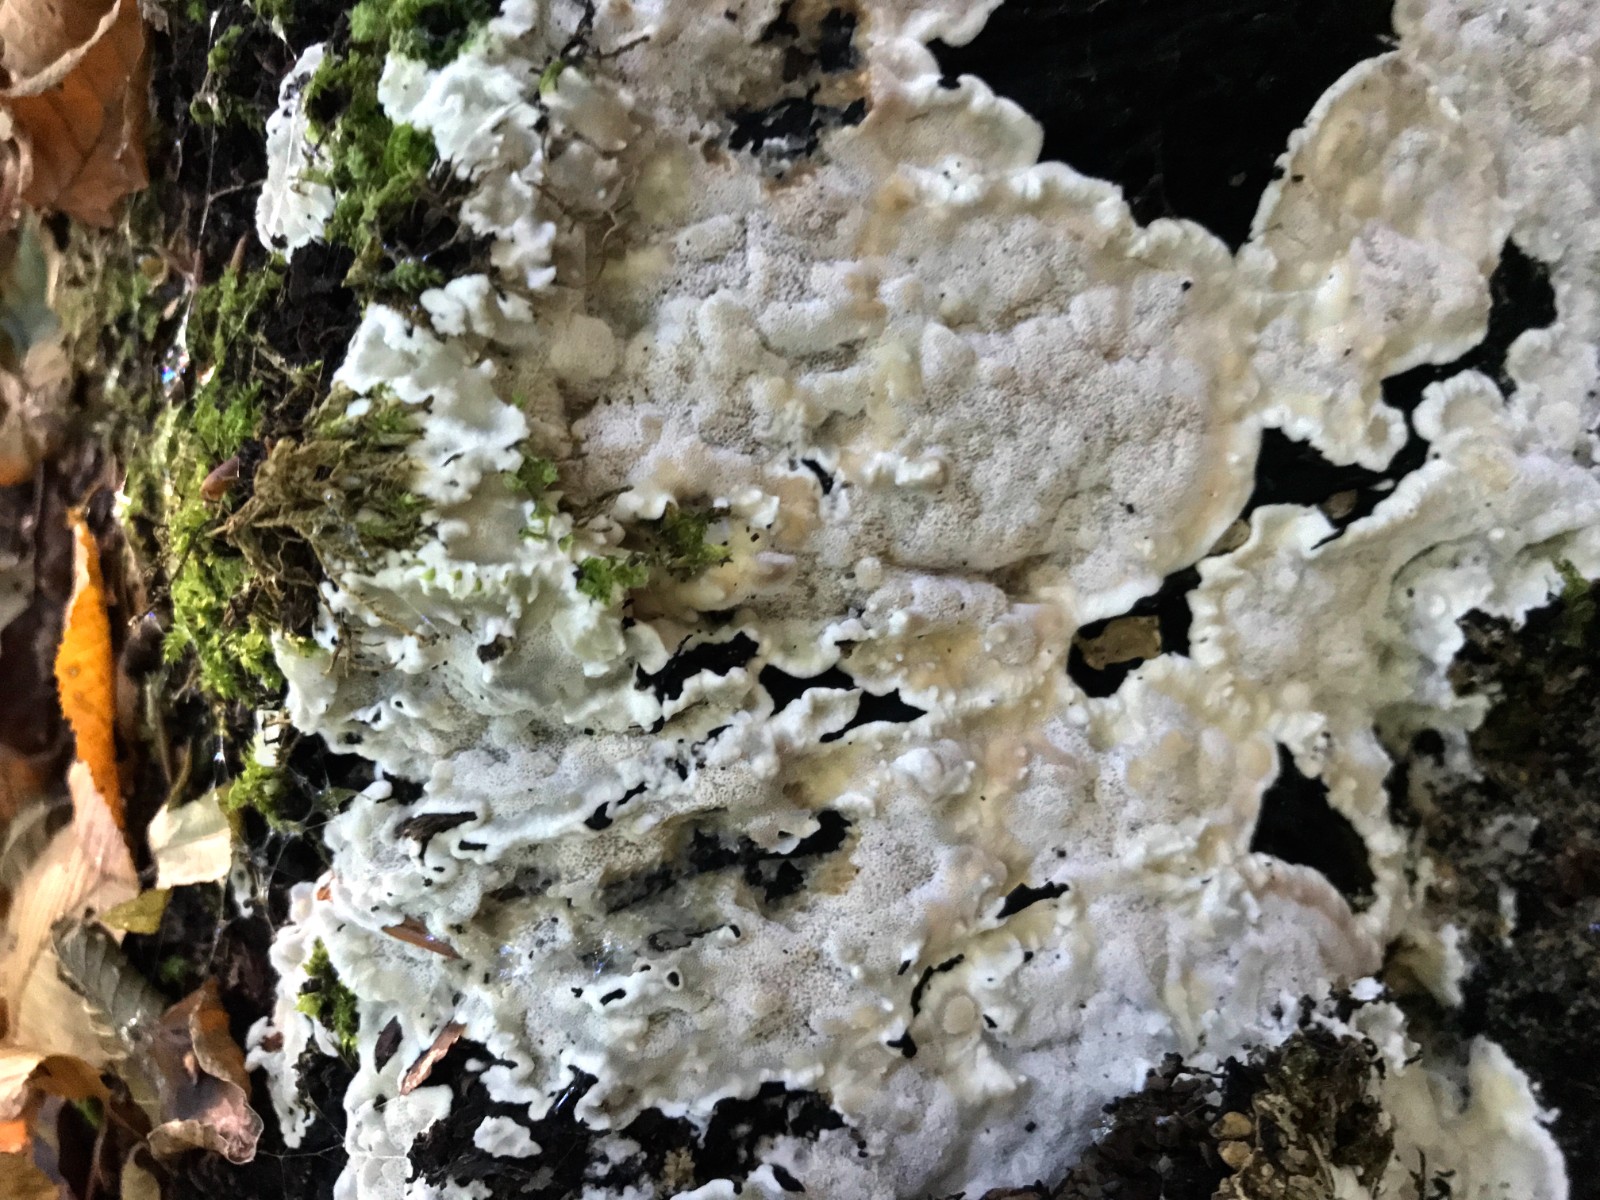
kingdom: Fungi
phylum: Basidiomycota
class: Agaricomycetes
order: Polyporales
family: Meruliaceae
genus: Physisporinus
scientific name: Physisporinus vitreus
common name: mastesvamp
